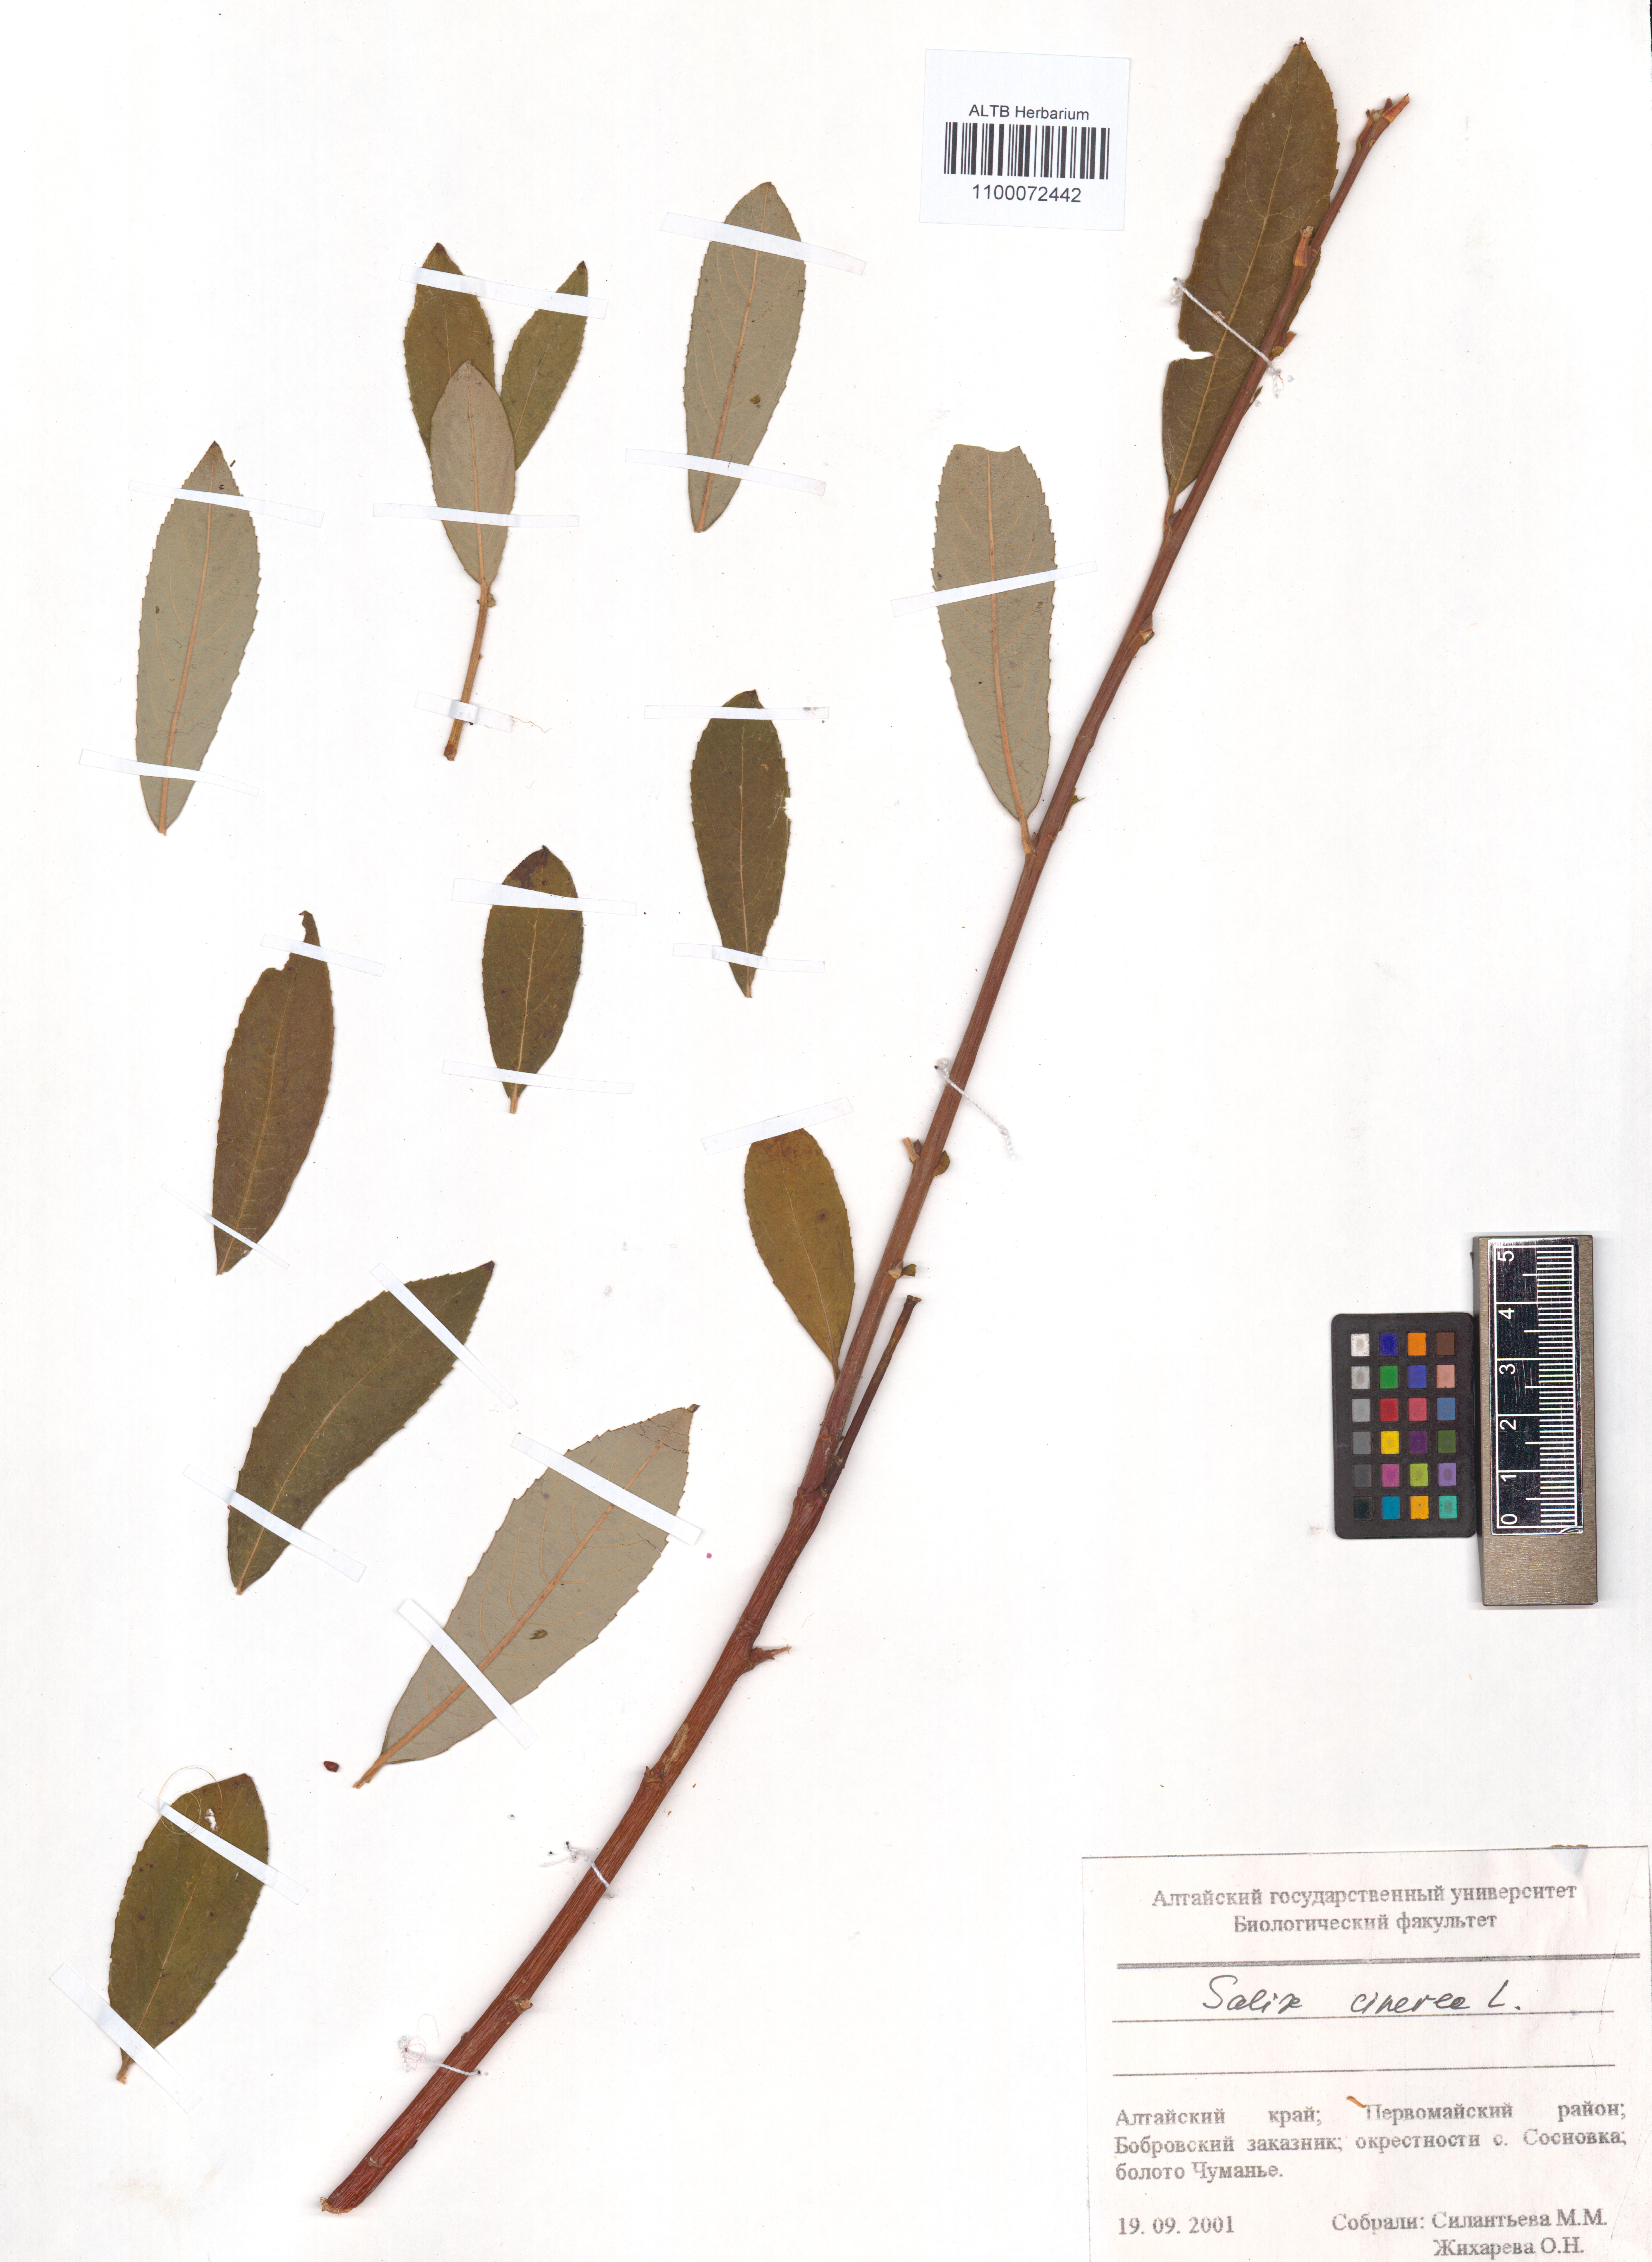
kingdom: Plantae
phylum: Tracheophyta
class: Magnoliopsida
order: Malpighiales
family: Salicaceae
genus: Salix
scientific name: Salix cinerea
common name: Common sallow
